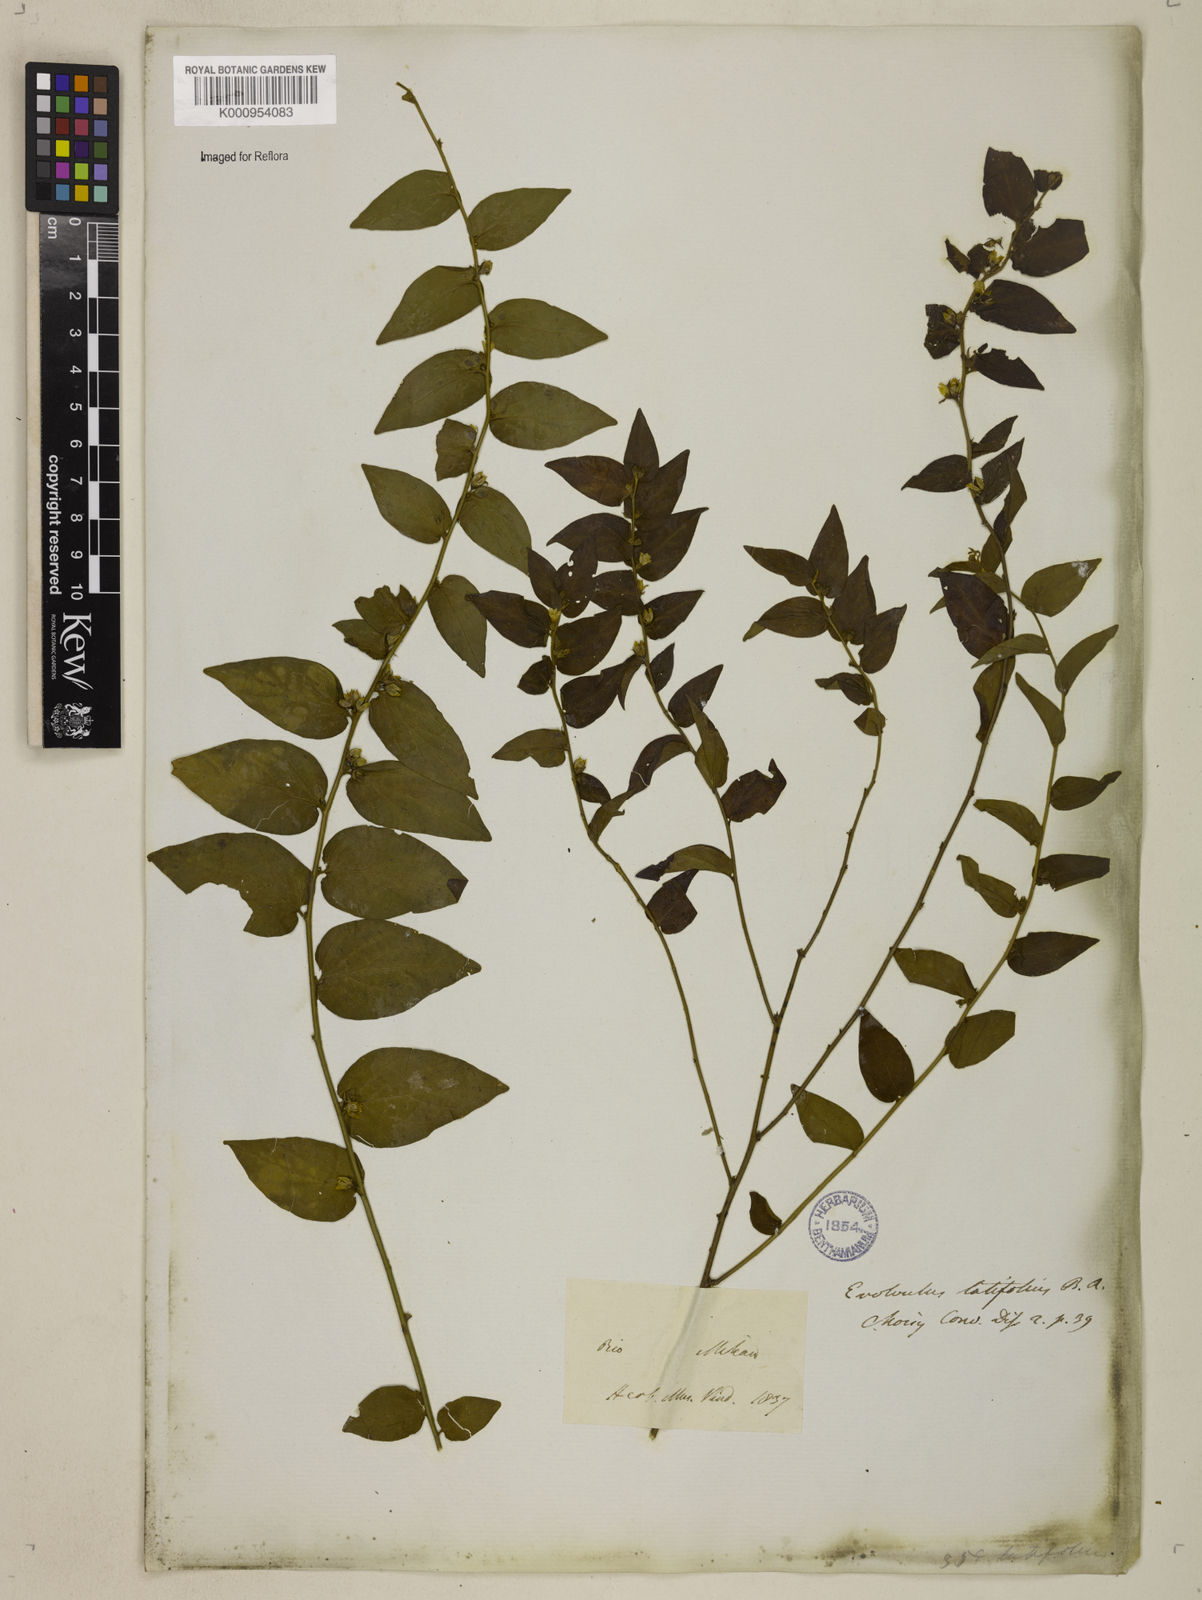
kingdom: Plantae
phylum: Tracheophyta
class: Magnoliopsida
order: Solanales
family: Convolvulaceae
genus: Evolvulus
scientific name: Evolvulus latifolius
